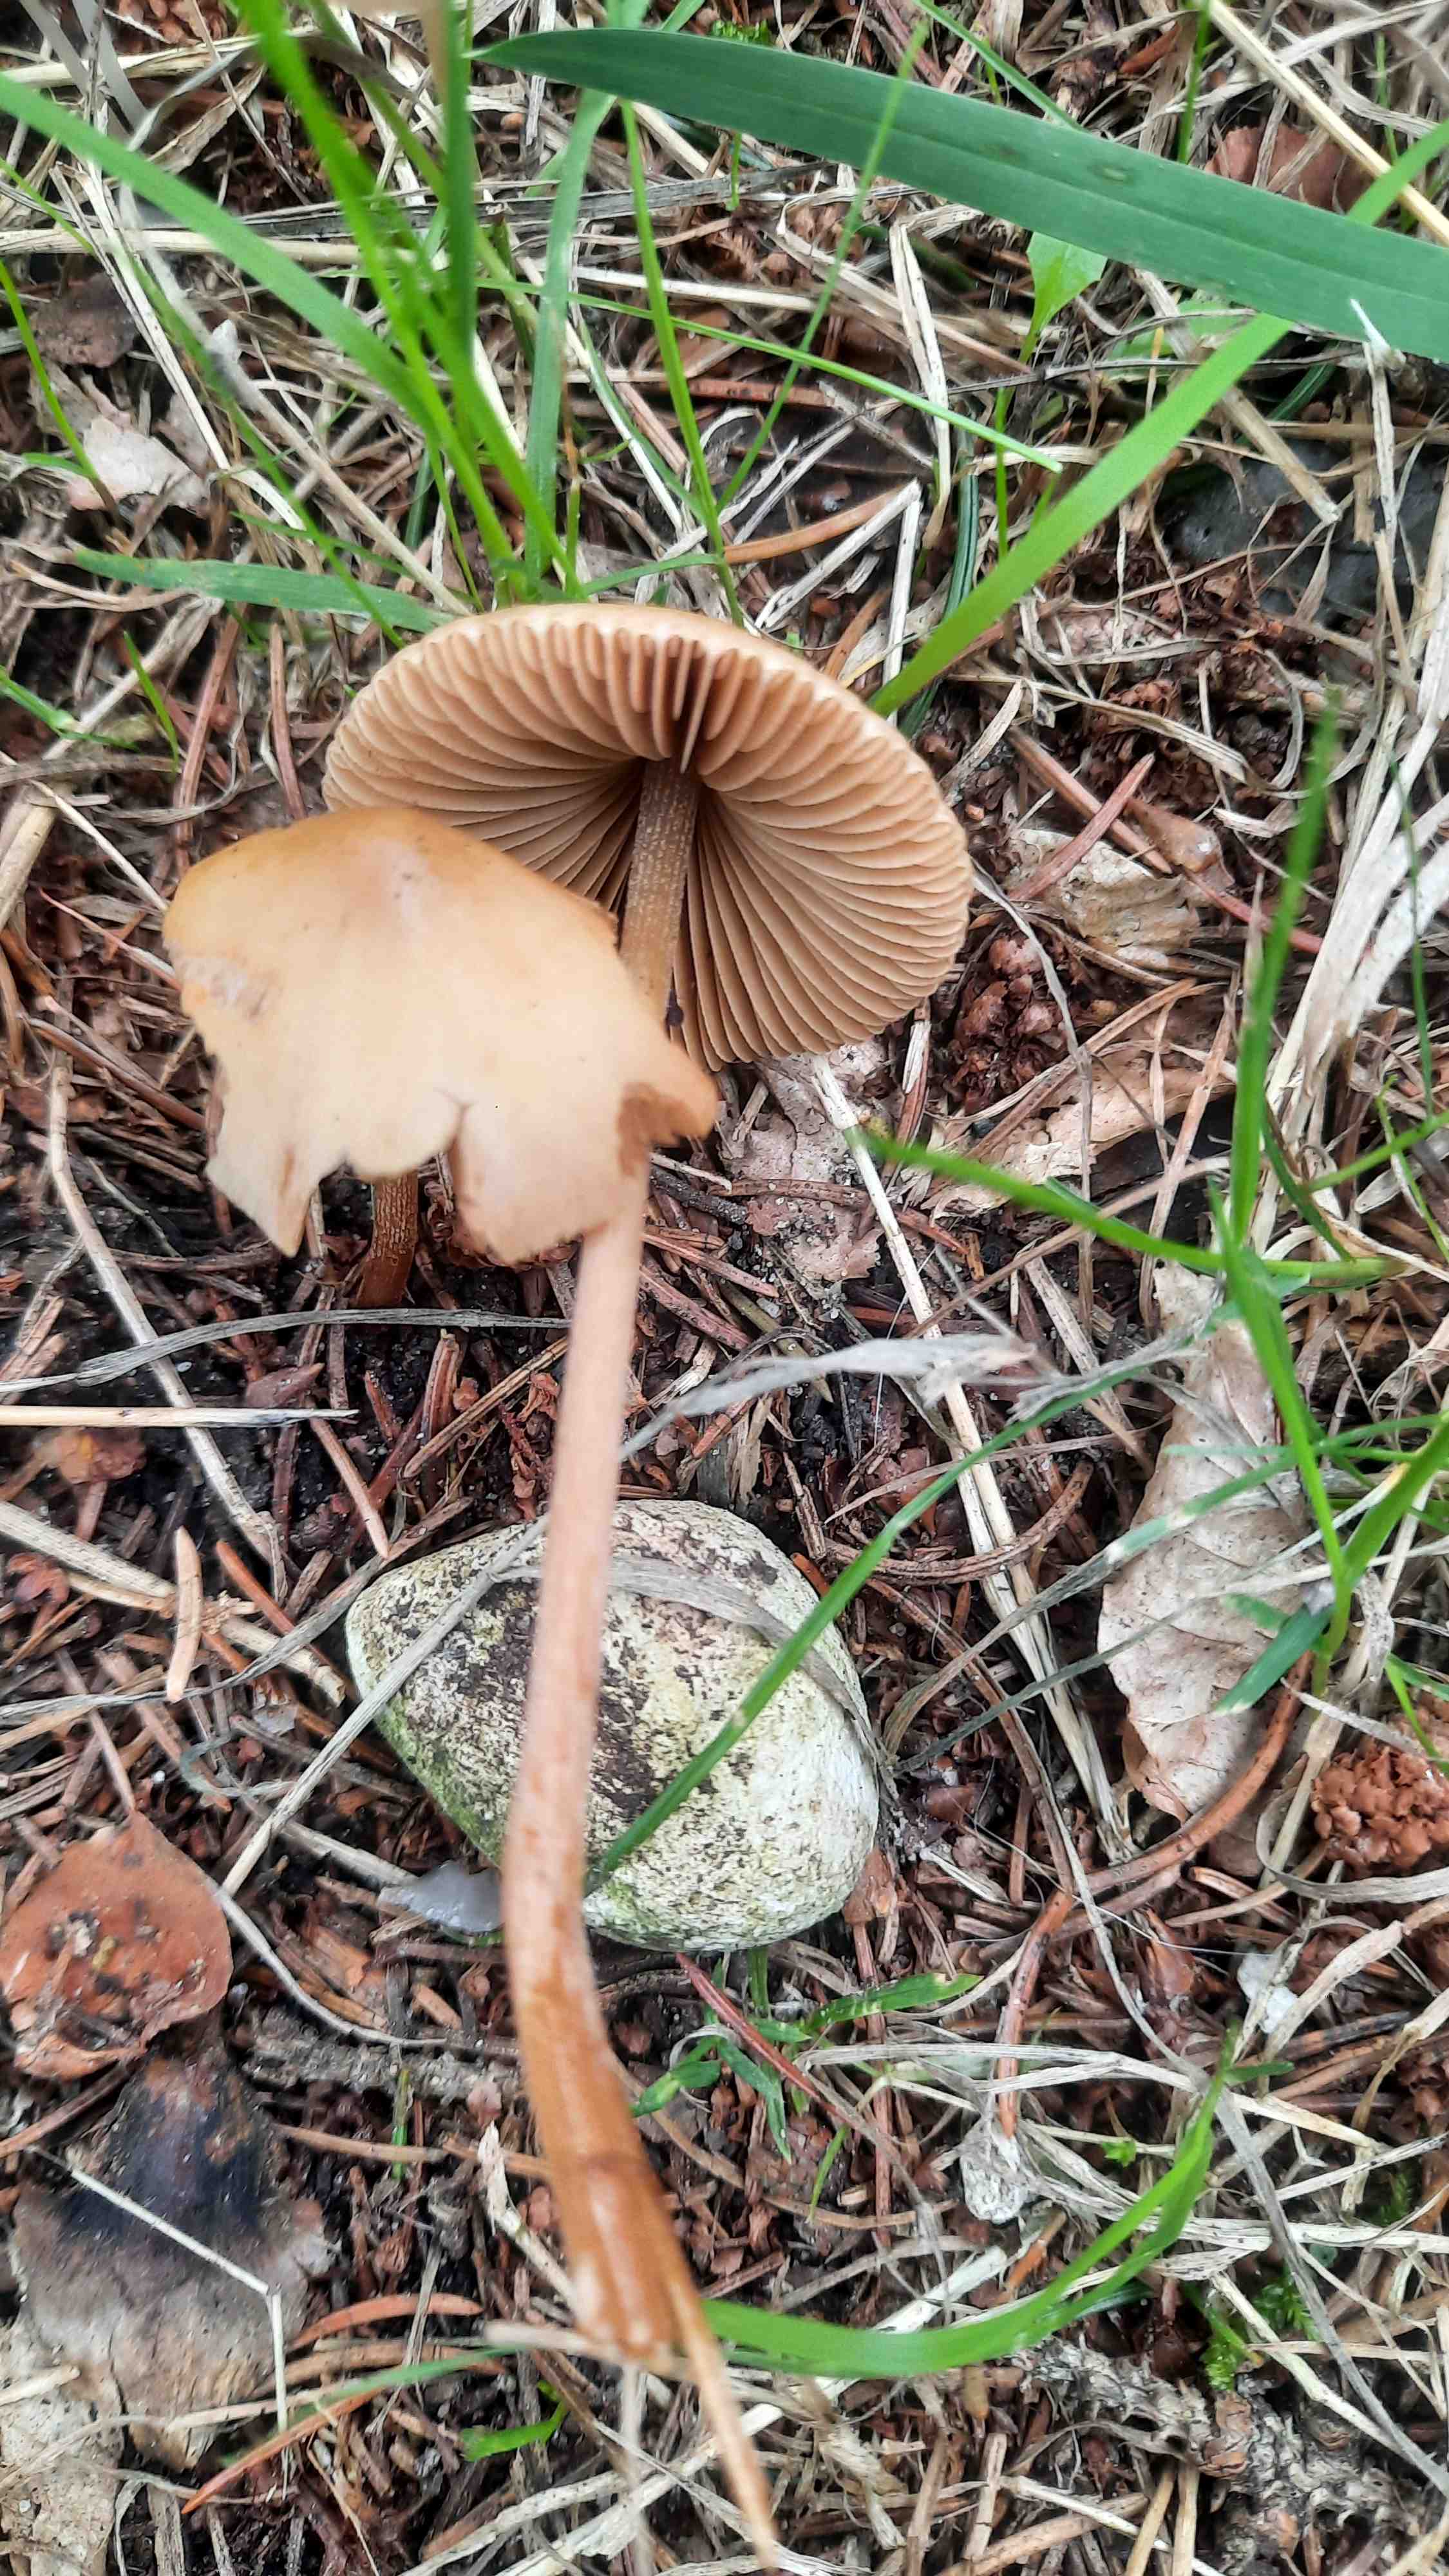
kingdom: Fungi
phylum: Basidiomycota
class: Agaricomycetes
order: Agaricales
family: Bolbitiaceae
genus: Conocybe
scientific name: Conocybe
